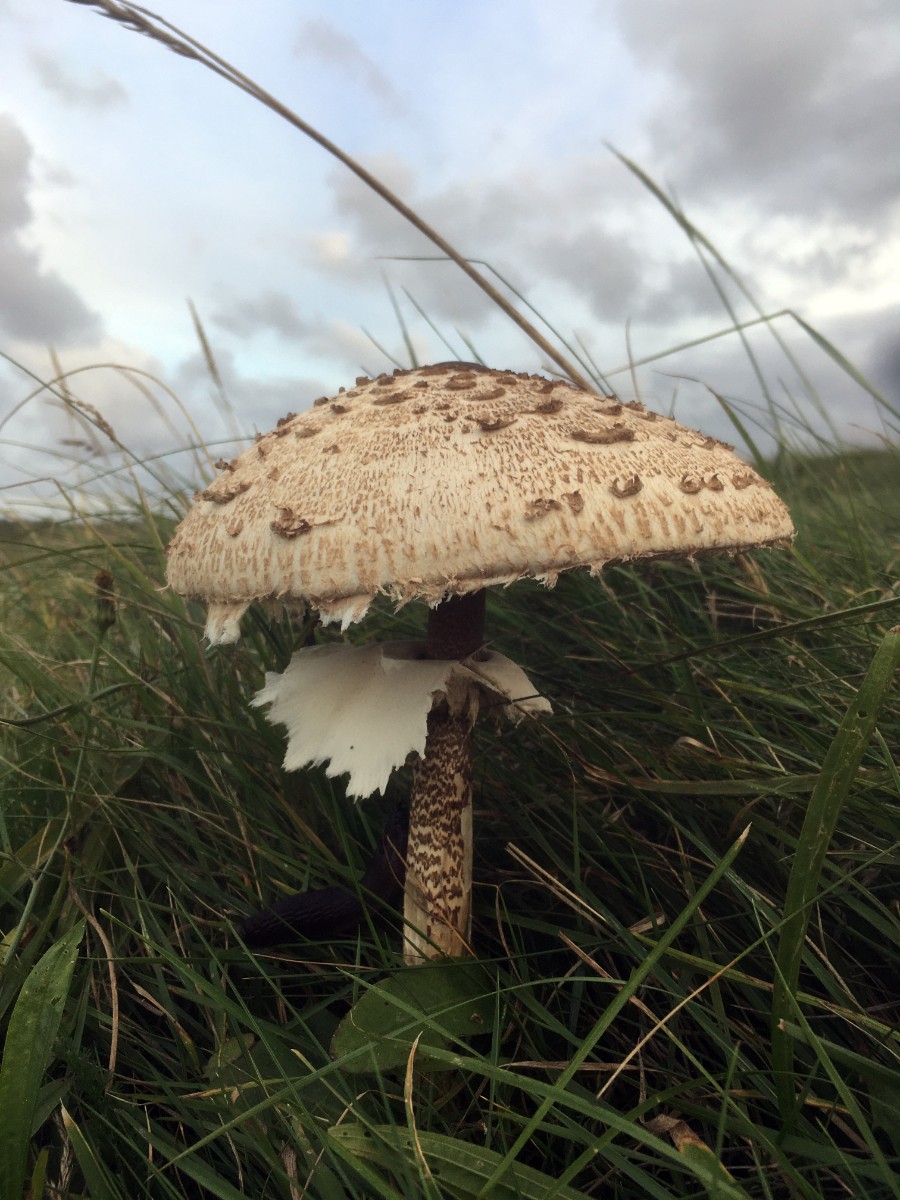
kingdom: Fungi
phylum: Basidiomycota
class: Agaricomycetes
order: Agaricales
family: Agaricaceae
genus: Macrolepiota
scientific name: Macrolepiota procera
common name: stor kæmpeparasolhat
